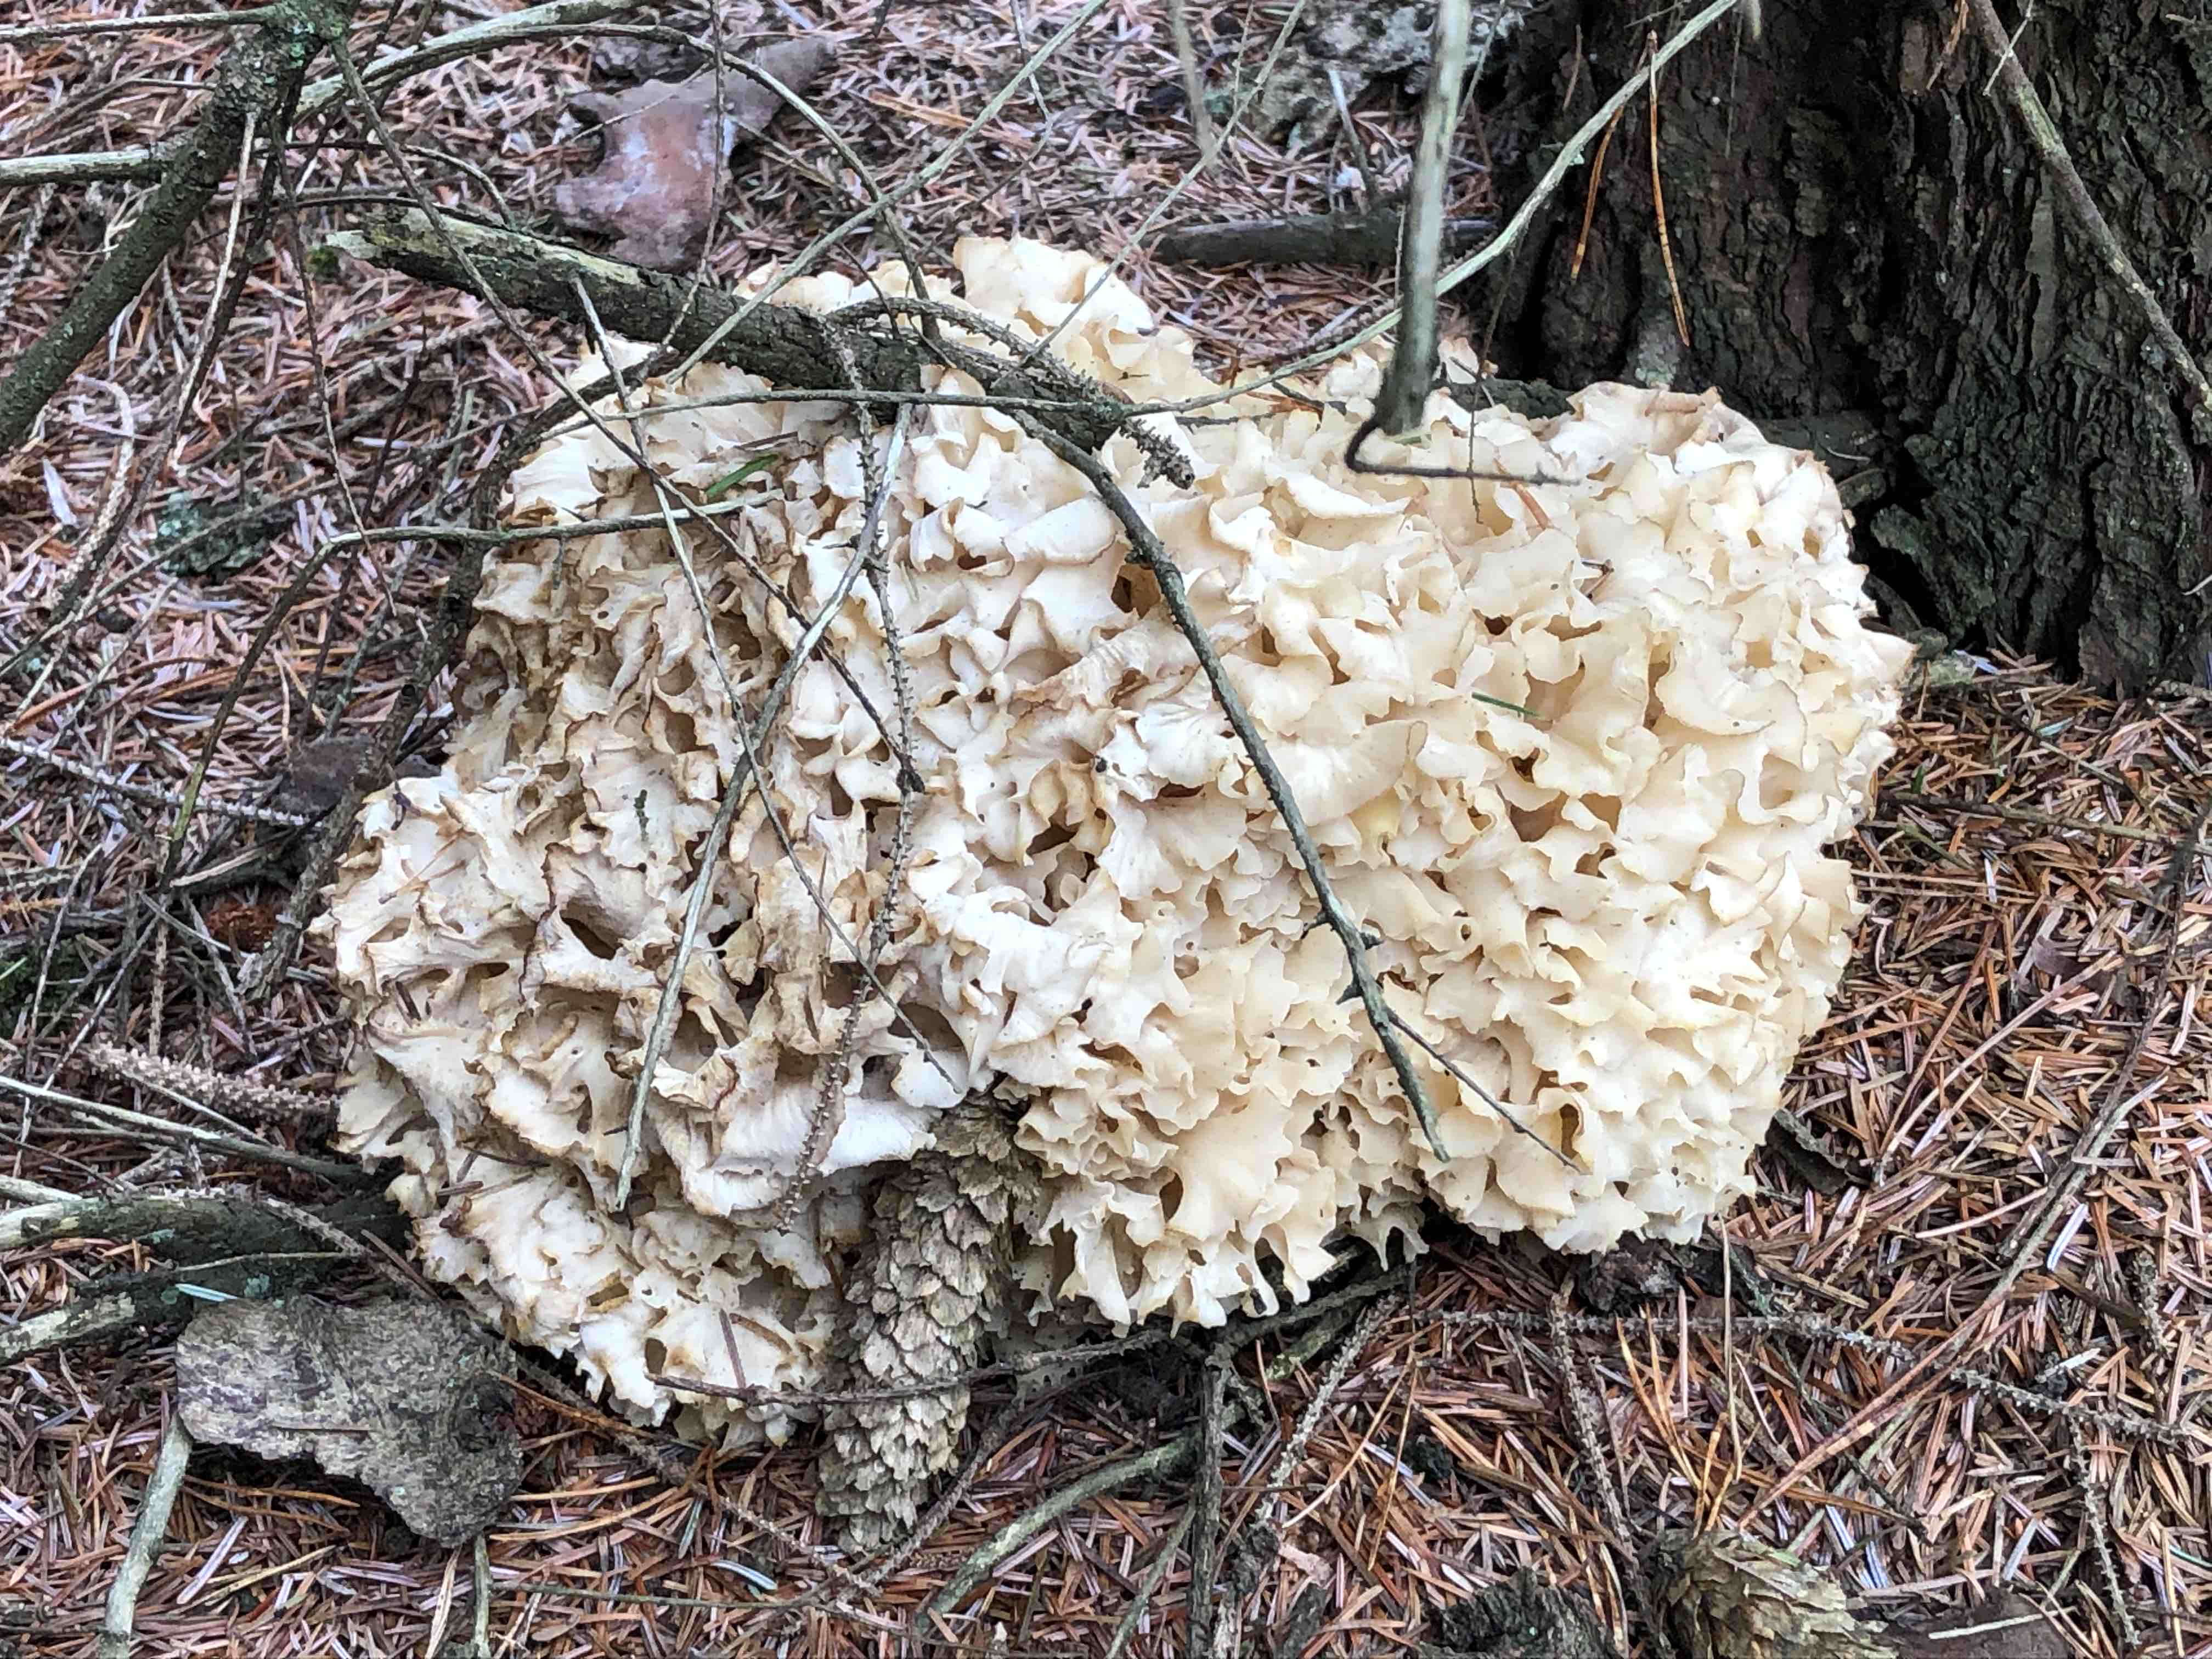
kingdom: Fungi
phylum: Basidiomycota
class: Agaricomycetes
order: Polyporales
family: Sparassidaceae
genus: Sparassis
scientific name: Sparassis crispa
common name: kruset blomkålssvamp
